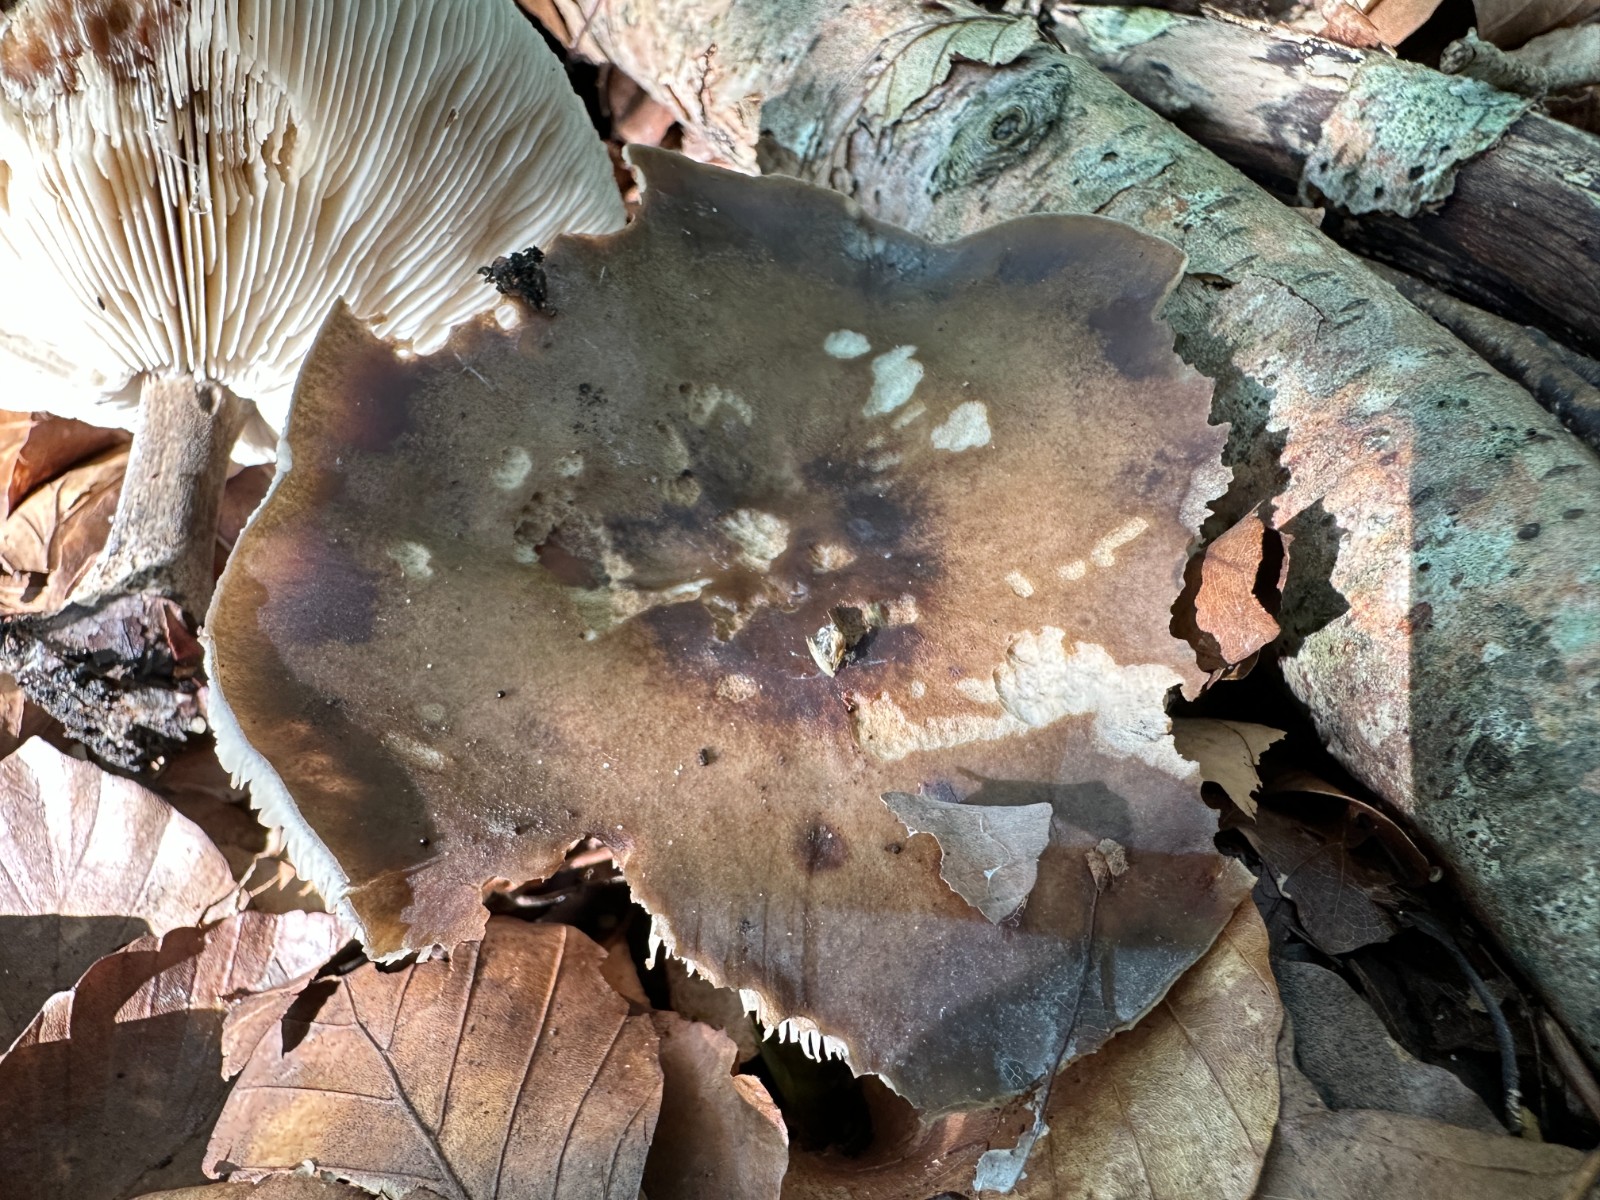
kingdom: Fungi
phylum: Basidiomycota
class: Agaricomycetes
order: Agaricales
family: Tricholomataceae
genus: Melanoleuca
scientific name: Melanoleuca
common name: munkehat
